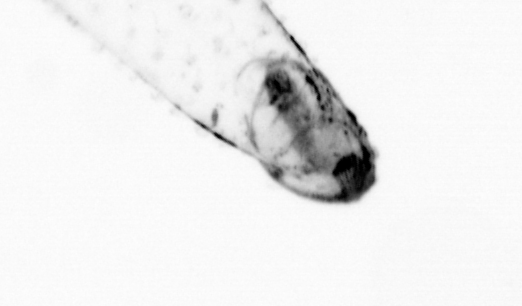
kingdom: Animalia
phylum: Chaetognatha
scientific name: Chaetognatha
